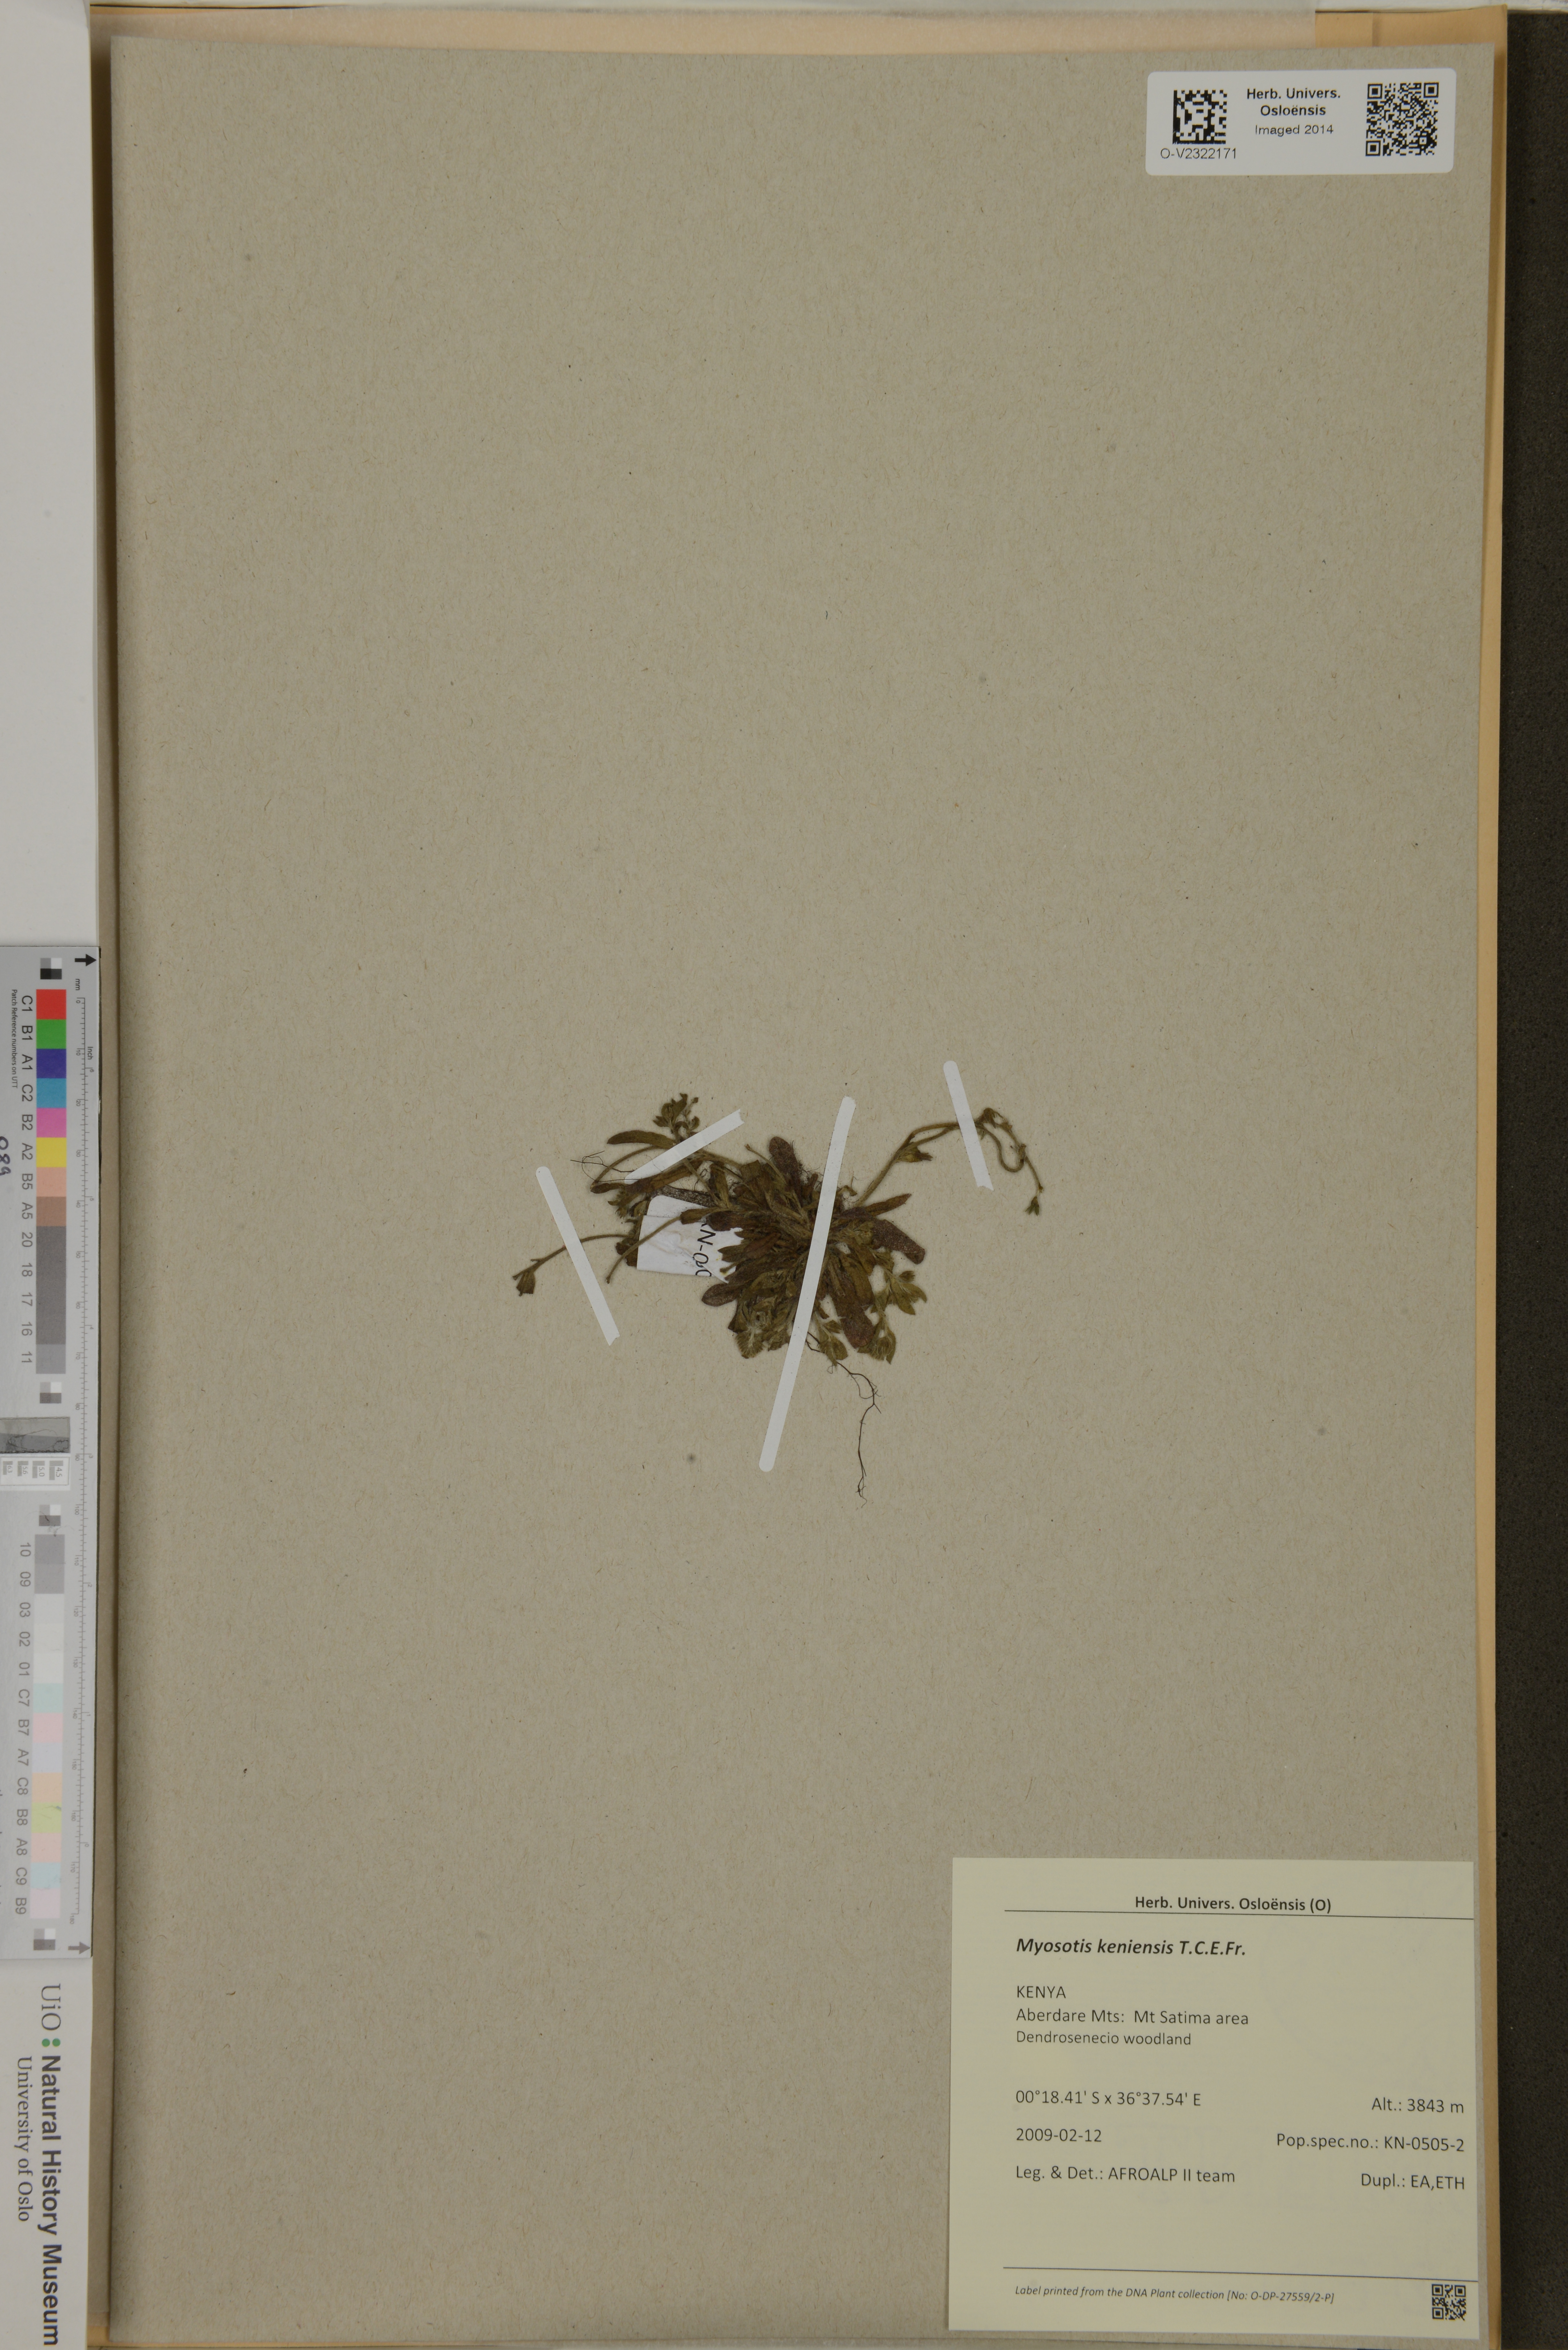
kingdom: Plantae
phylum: Tracheophyta
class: Magnoliopsida
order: Boraginales
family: Boraginaceae
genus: Myosotis
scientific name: Myosotis keniensis
